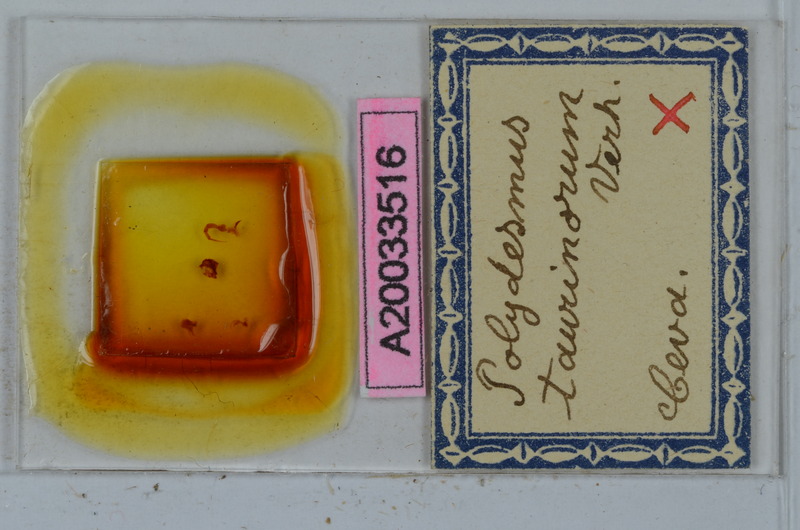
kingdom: Animalia
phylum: Arthropoda
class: Diplopoda
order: Polydesmida
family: Polydesmidae
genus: Propolydesmus
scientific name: Propolydesmus testaceus
